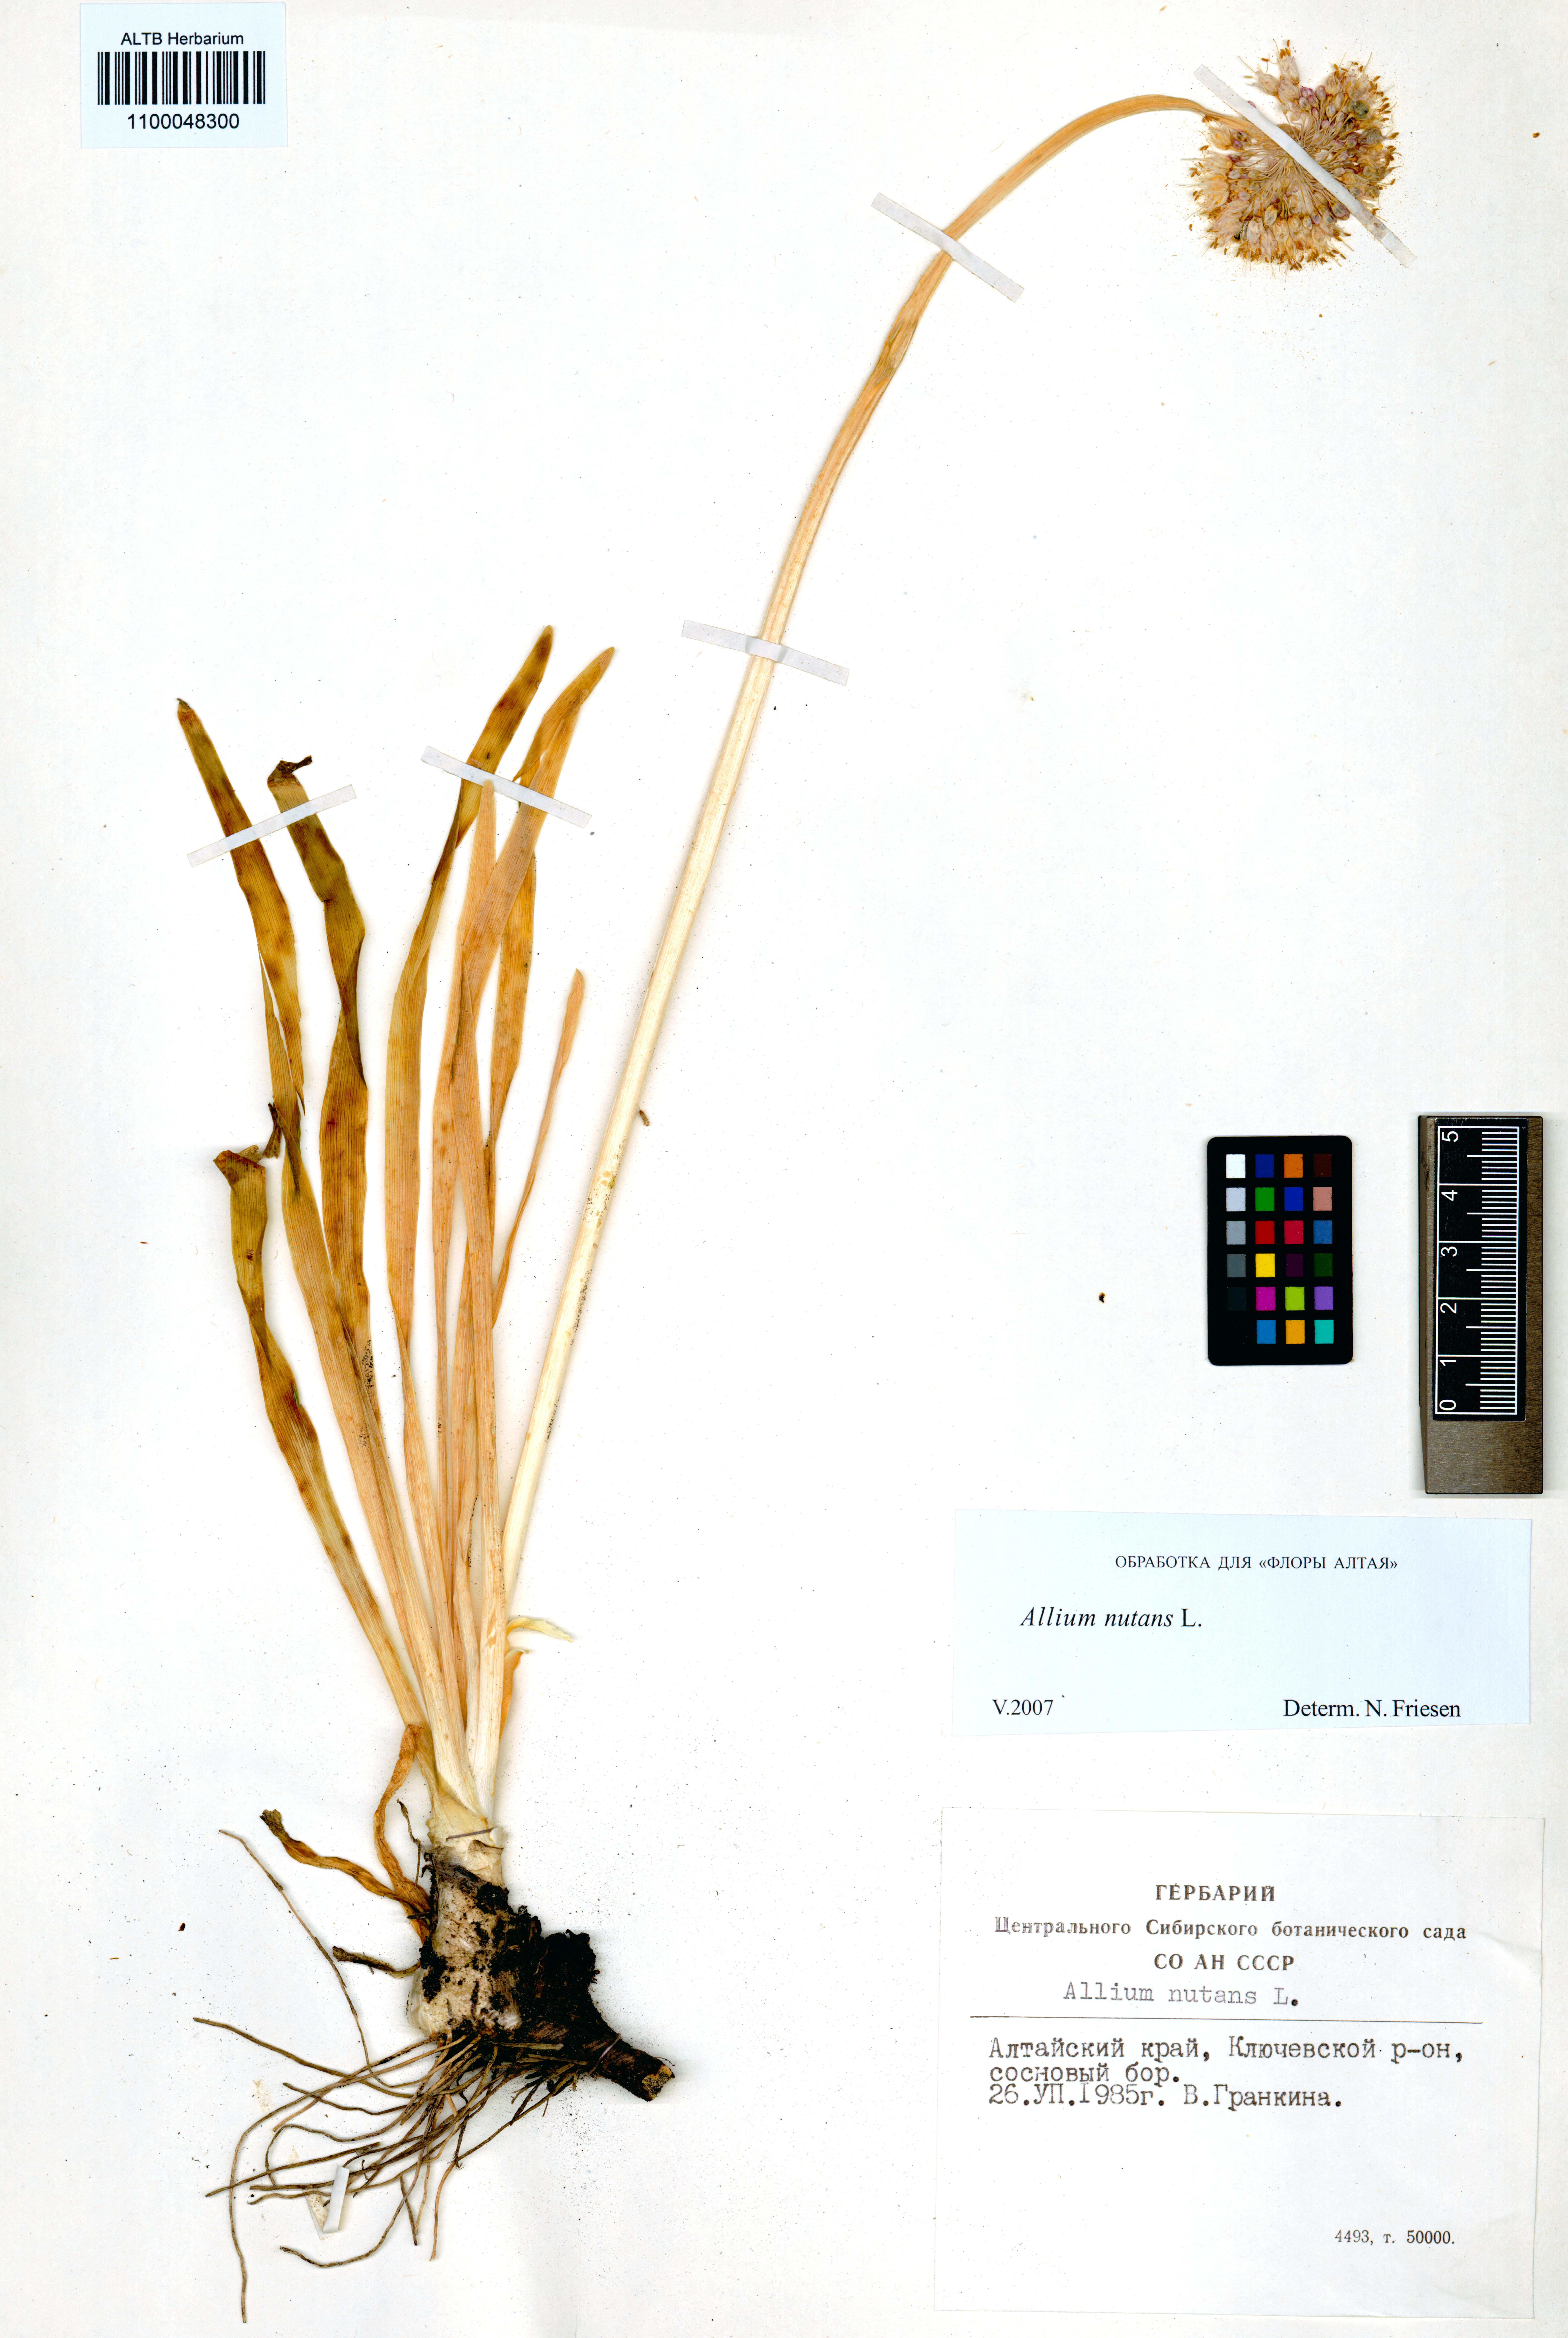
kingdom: Plantae
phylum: Tracheophyta
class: Liliopsida
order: Asparagales
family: Amaryllidaceae
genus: Allium
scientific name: Allium nutans
